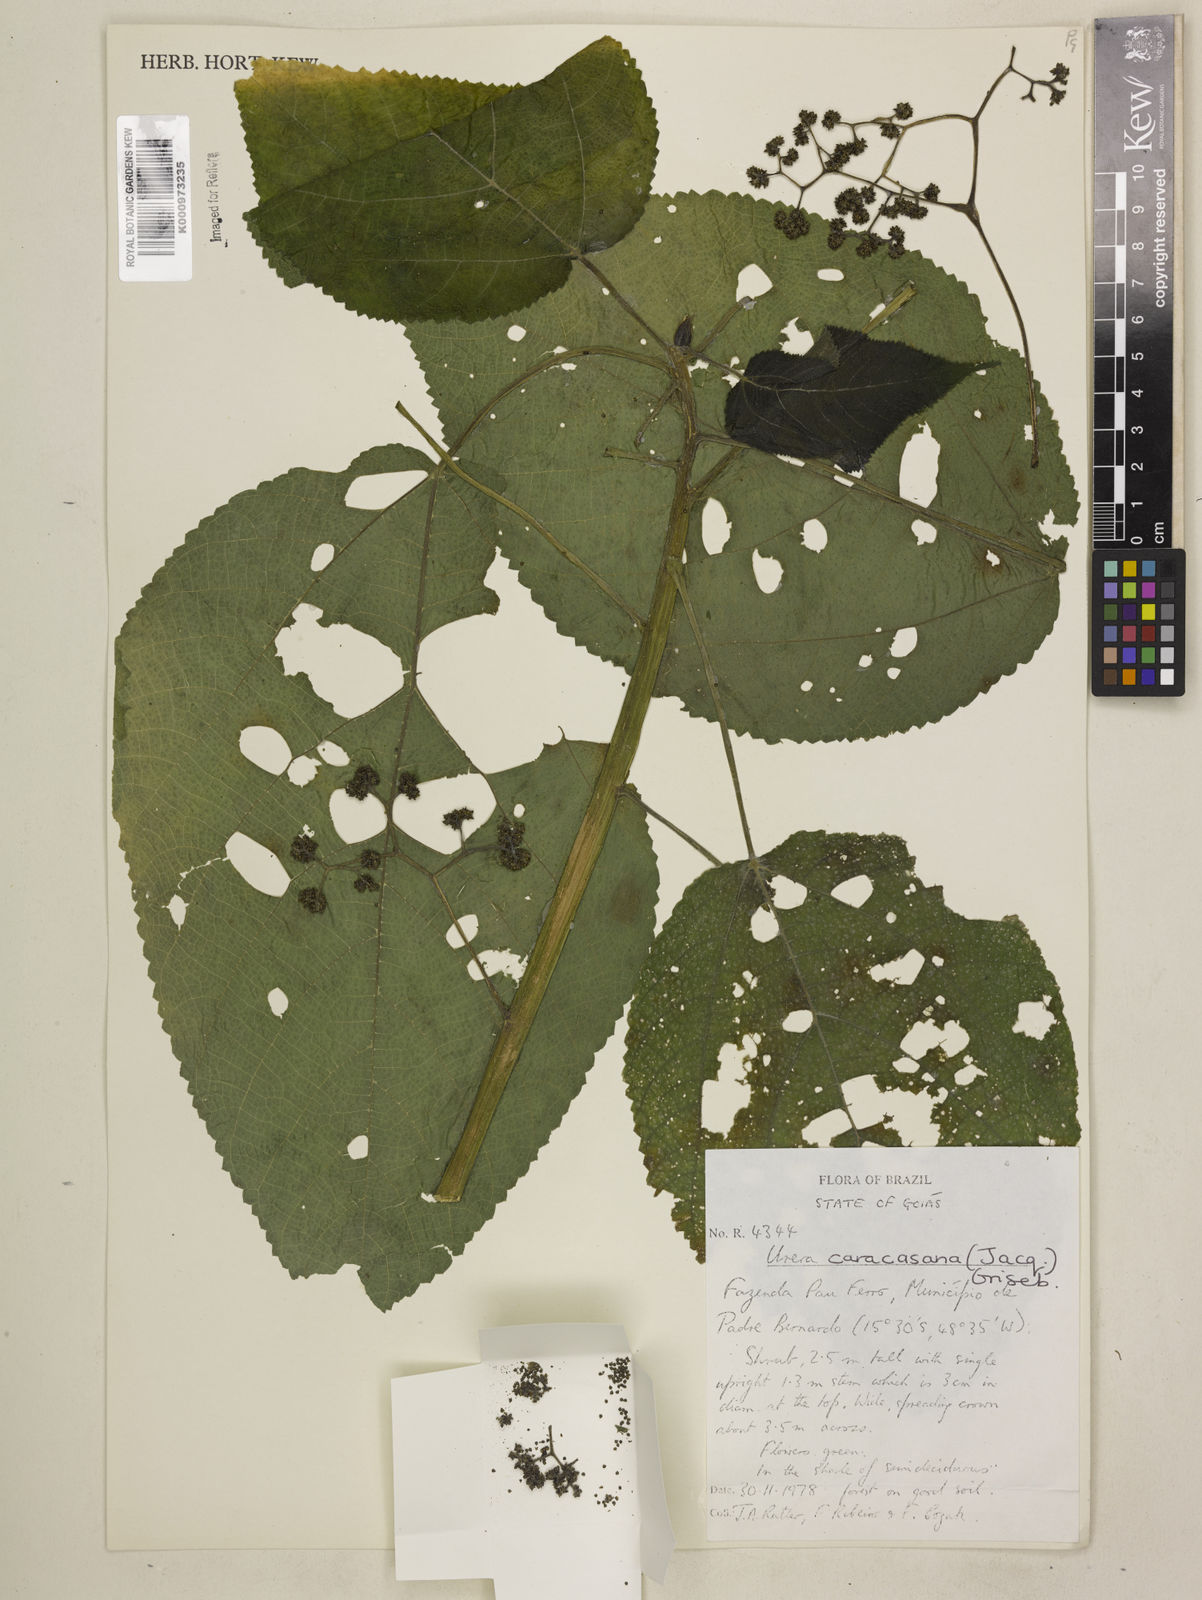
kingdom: Plantae
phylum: Tracheophyta
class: Magnoliopsida
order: Rosales
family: Urticaceae
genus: Urera
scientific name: Urera caracasana
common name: Flameberry
